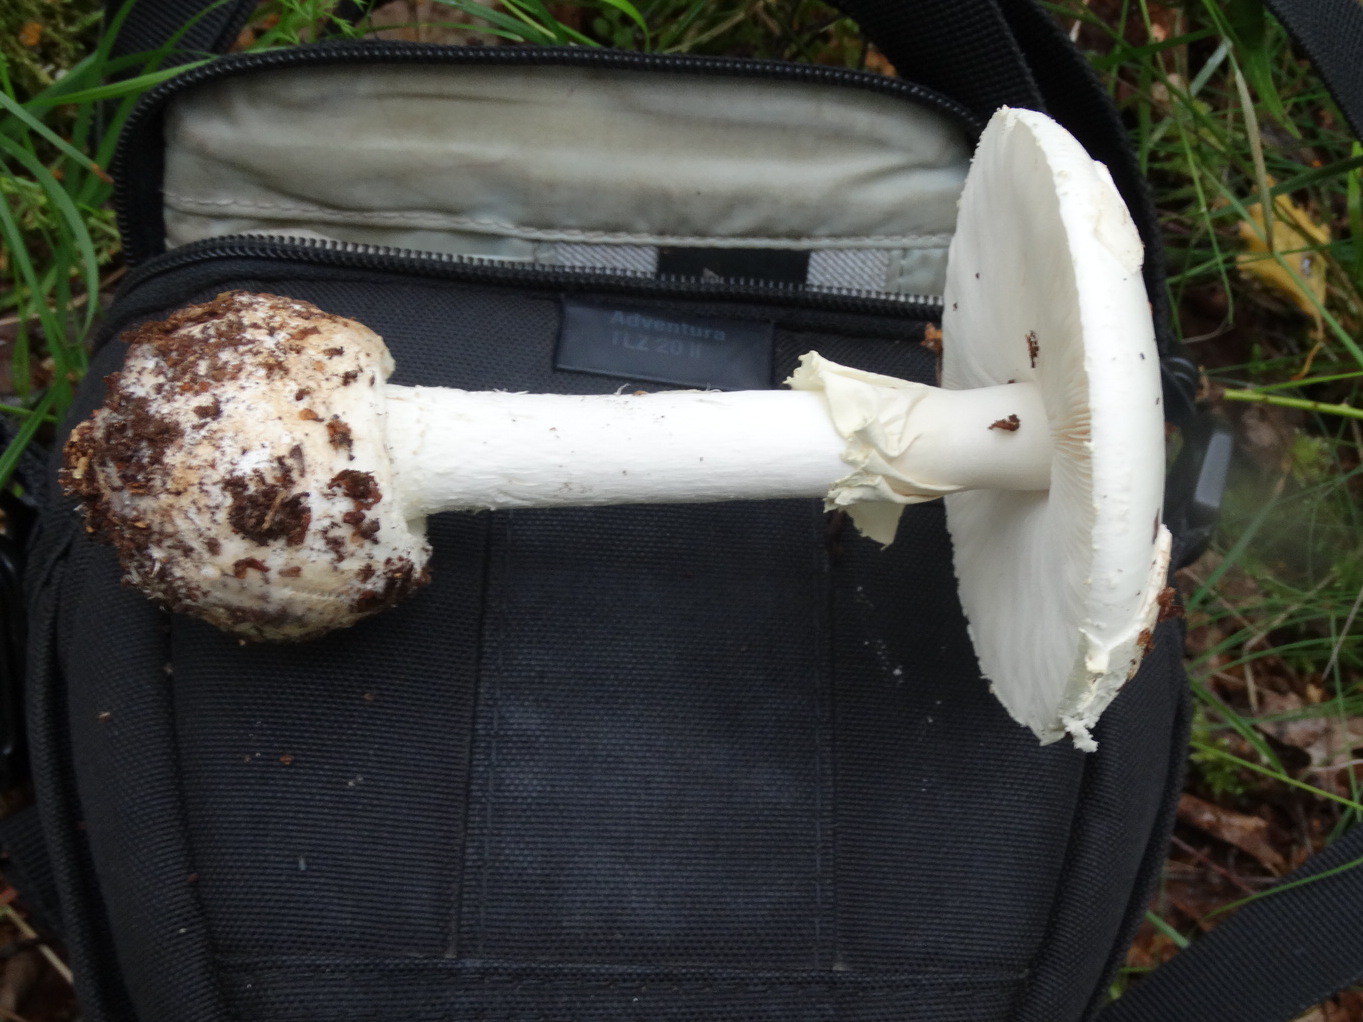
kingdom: Fungi
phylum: Basidiomycota
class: Agaricomycetes
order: Agaricales
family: Amanitaceae
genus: Amanita
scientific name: Amanita citrina
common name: False death-cap
